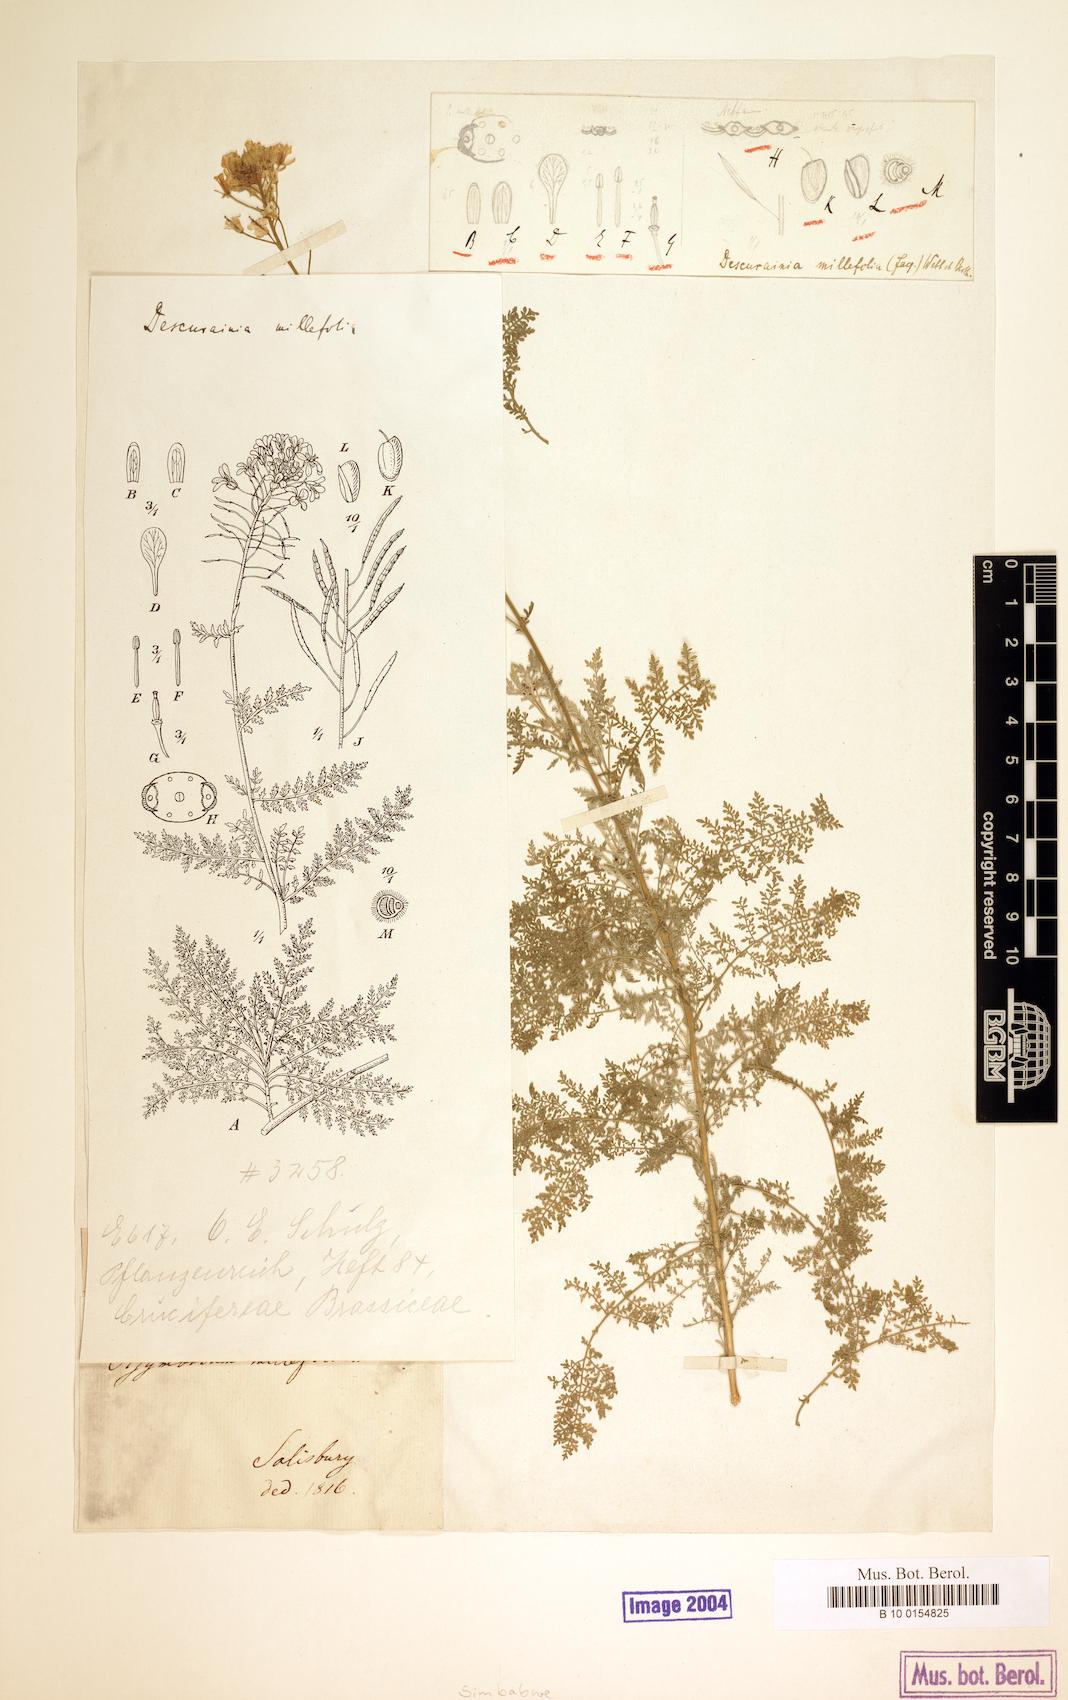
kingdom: Plantae
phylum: Tracheophyta
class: Magnoliopsida
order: Brassicales
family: Brassicaceae
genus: Descurainia
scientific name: Descurainia millefolia
